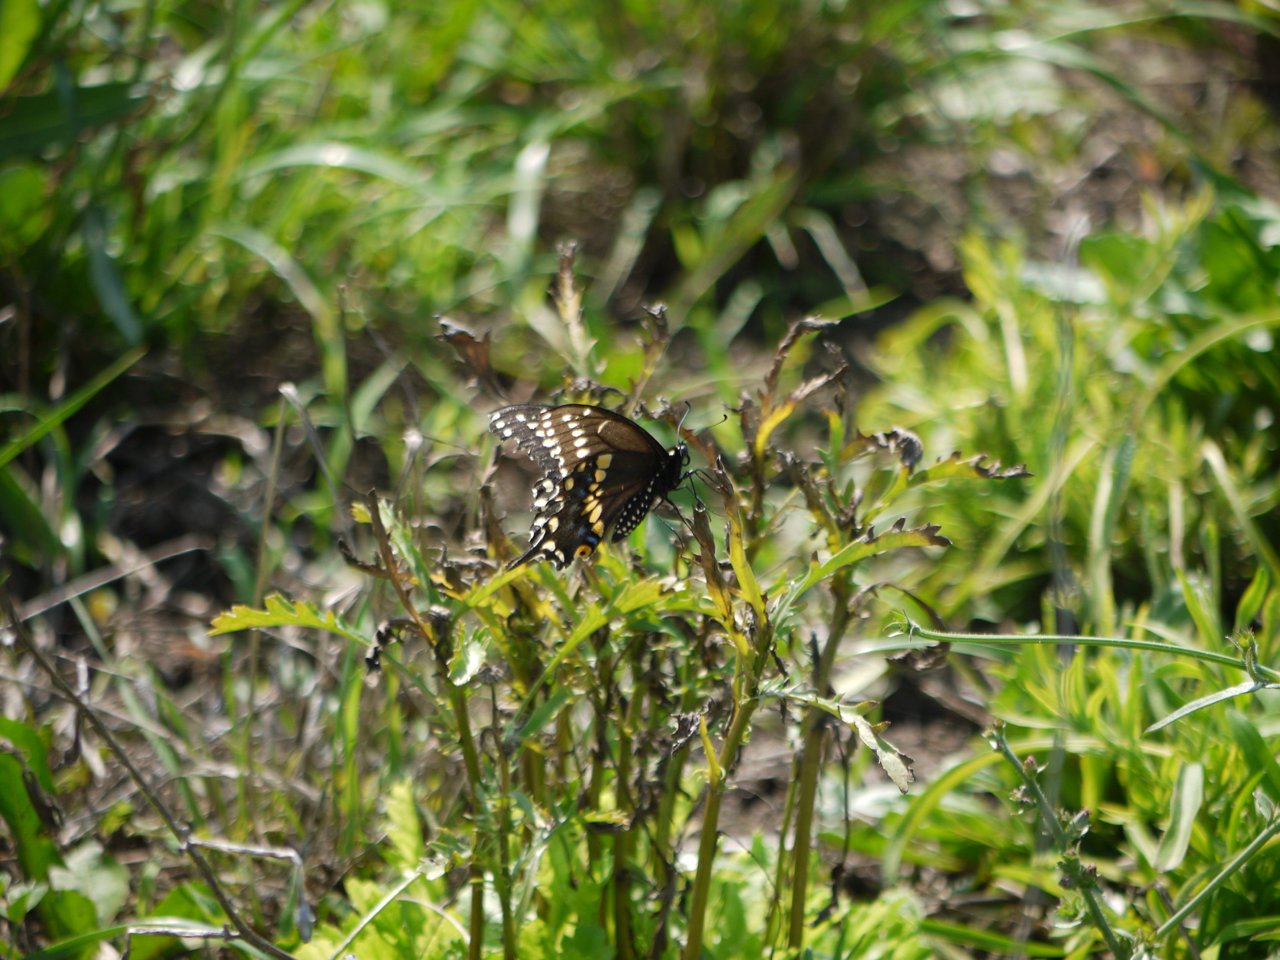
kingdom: Animalia
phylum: Arthropoda
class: Insecta
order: Lepidoptera
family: Papilionidae
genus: Papilio
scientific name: Papilio polyxenes
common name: Black Swallowtail
